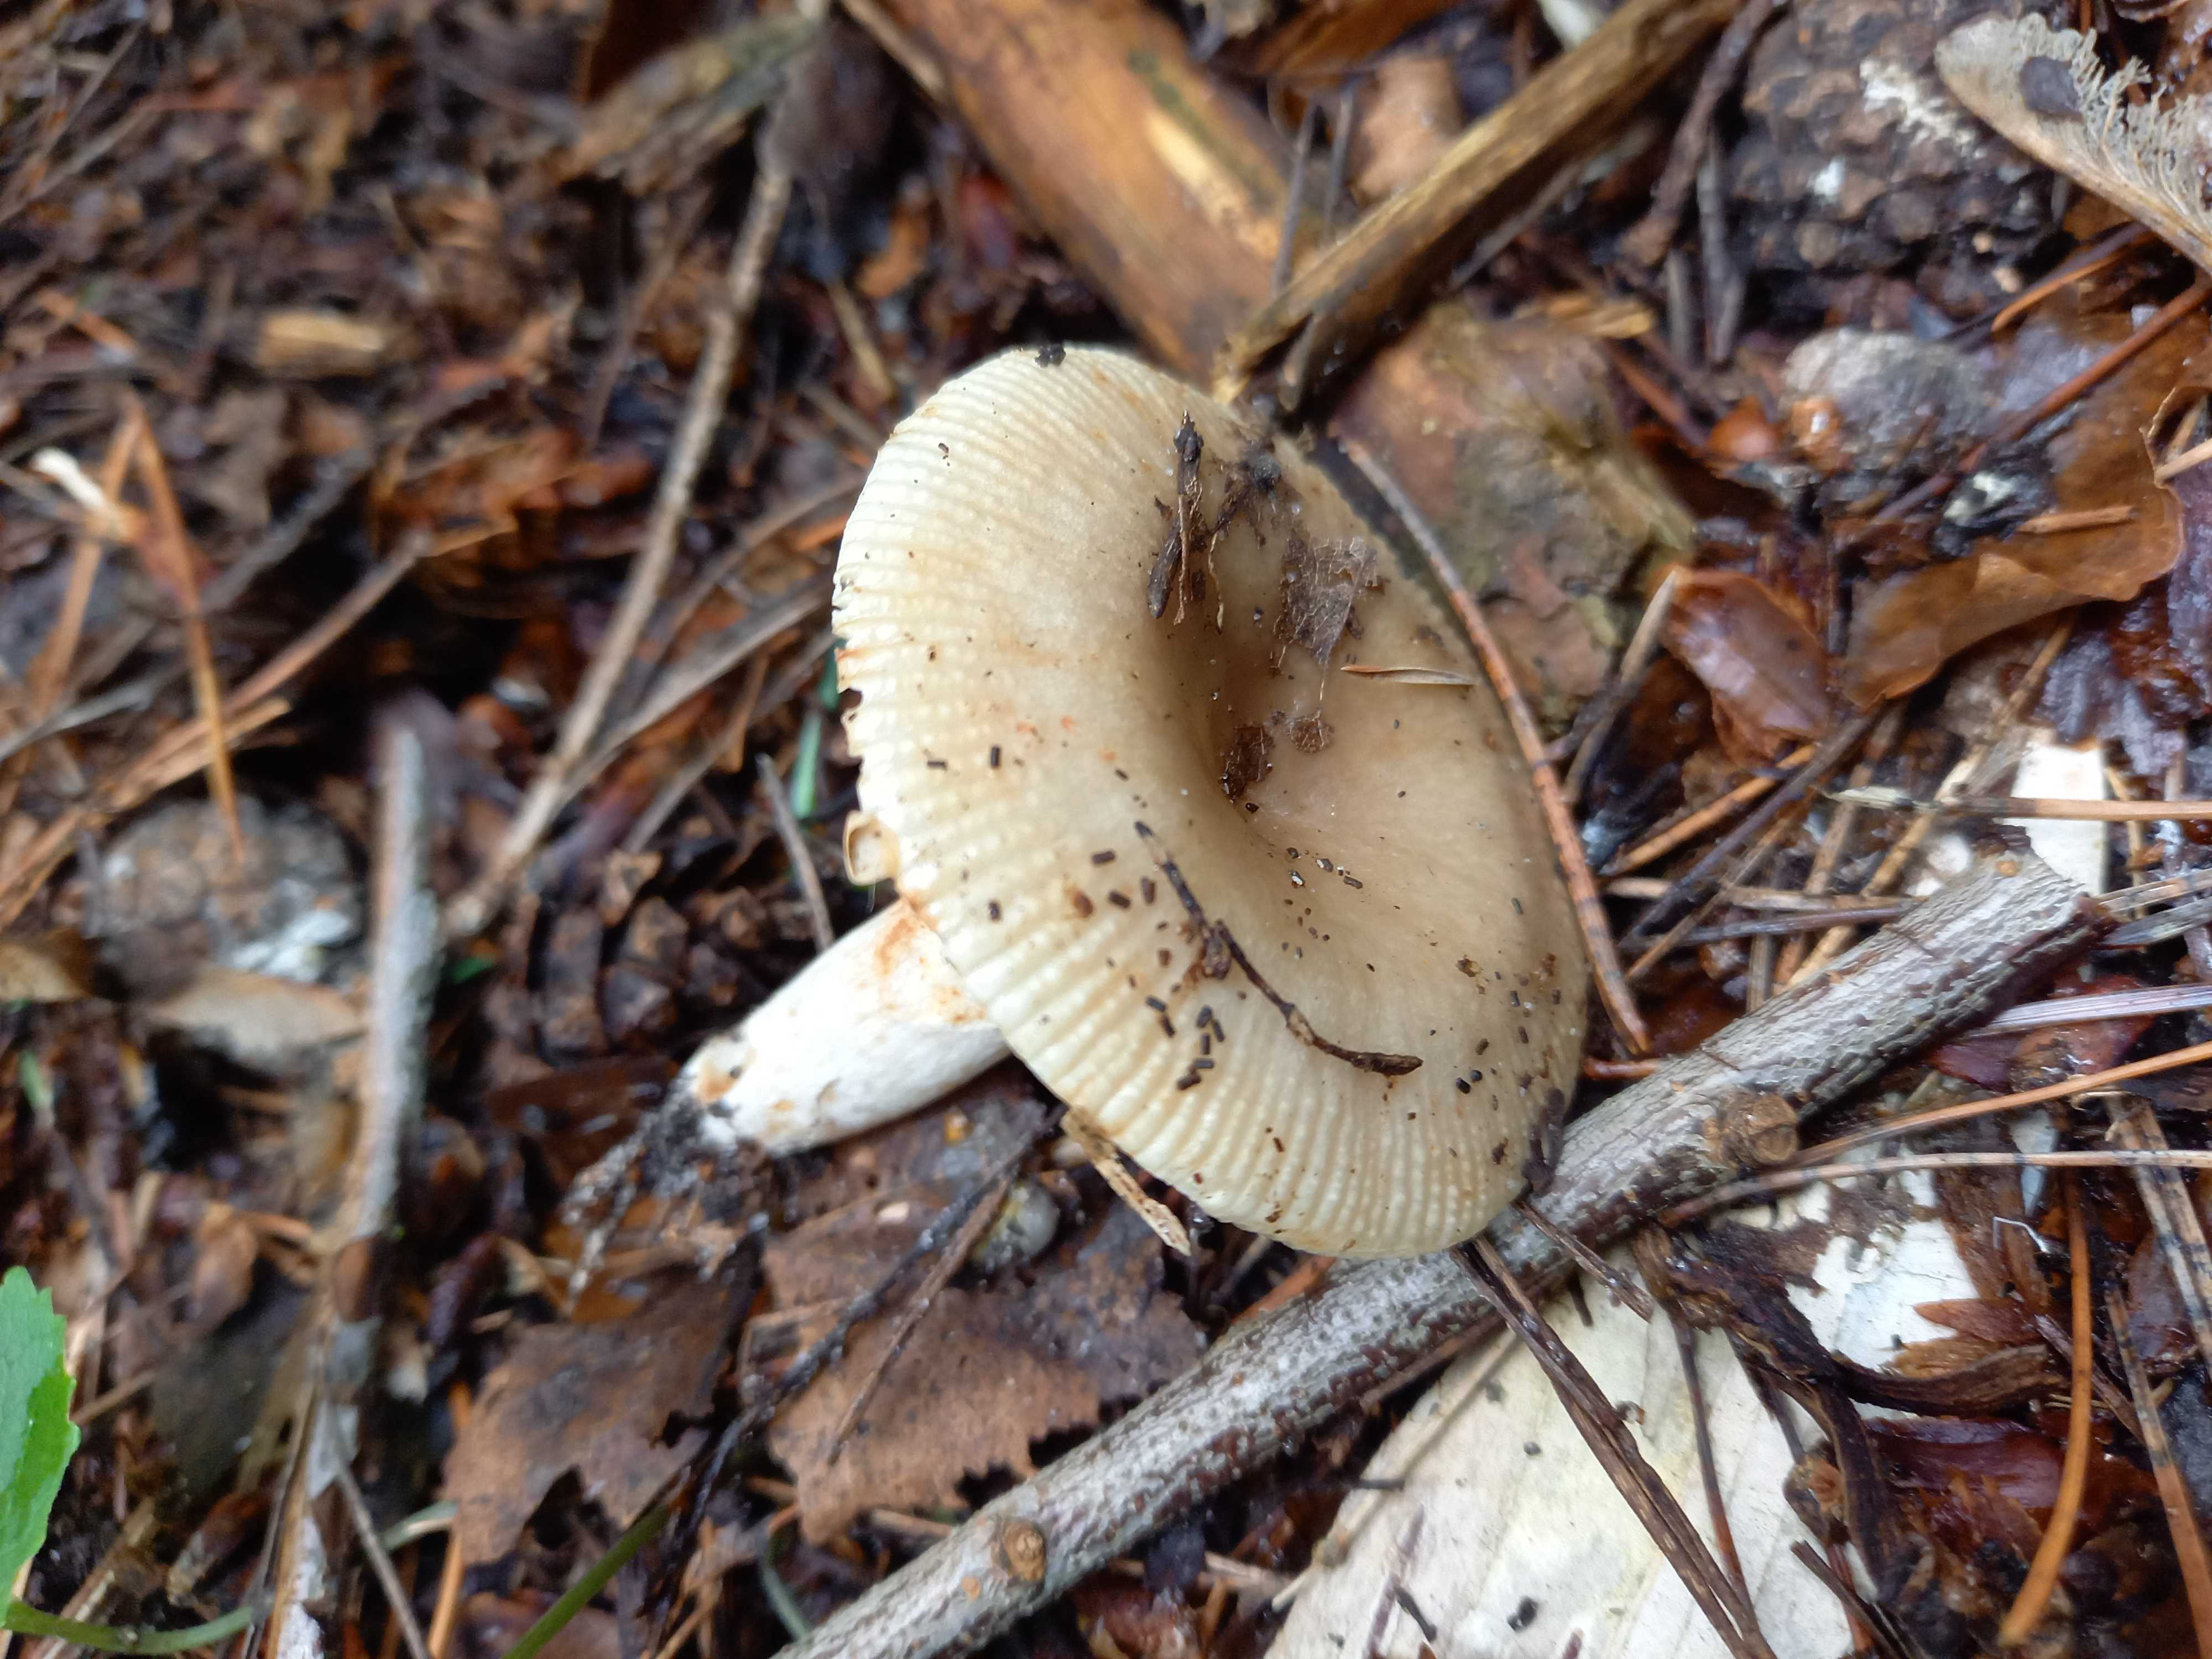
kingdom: Fungi
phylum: Basidiomycota
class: Agaricomycetes
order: Russulales
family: Russulaceae
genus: Russula
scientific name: Russula recondita
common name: mild kam-skørhat
